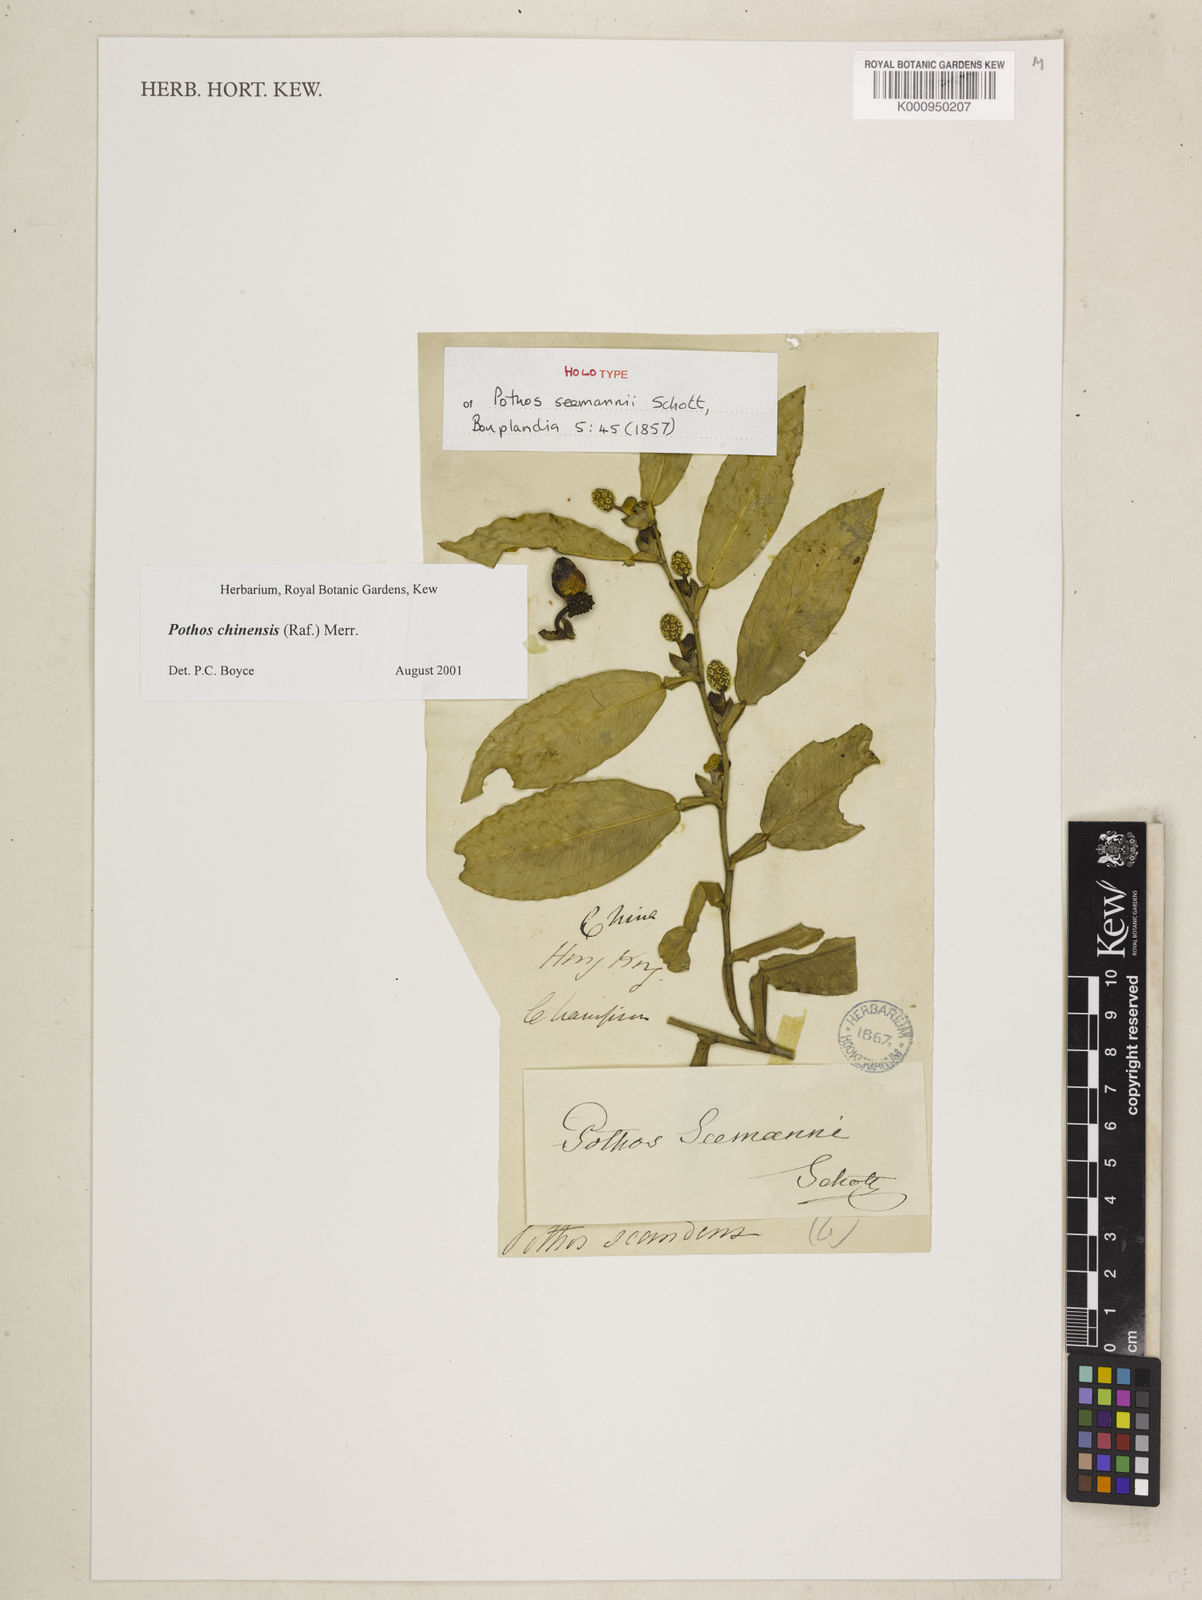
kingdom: Plantae
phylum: Tracheophyta
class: Liliopsida
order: Alismatales
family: Araceae
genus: Pothos
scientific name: Pothos chinensis
